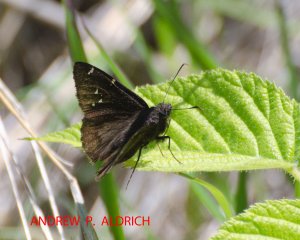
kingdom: Animalia
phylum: Arthropoda
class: Insecta
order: Lepidoptera
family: Hesperiidae
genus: Autochton
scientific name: Autochton
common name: Northern Cloudywing
